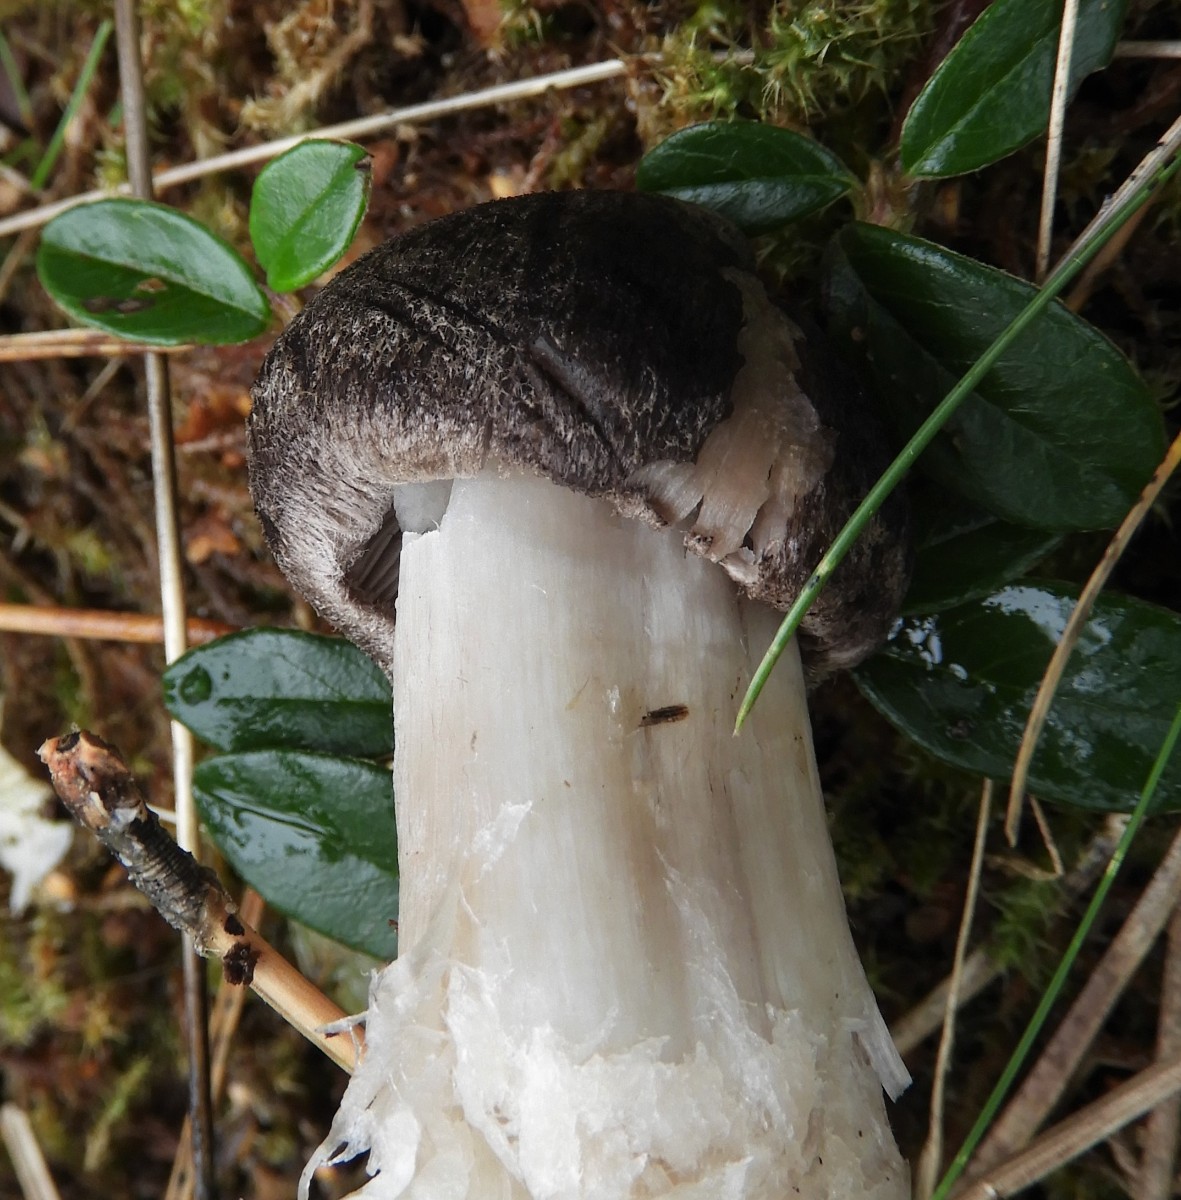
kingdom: Fungi
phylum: Basidiomycota
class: Agaricomycetes
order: Agaricales
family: Tricholomataceae
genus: Tricholoma
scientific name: Tricholoma terreum
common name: jordfarvet ridderhat
